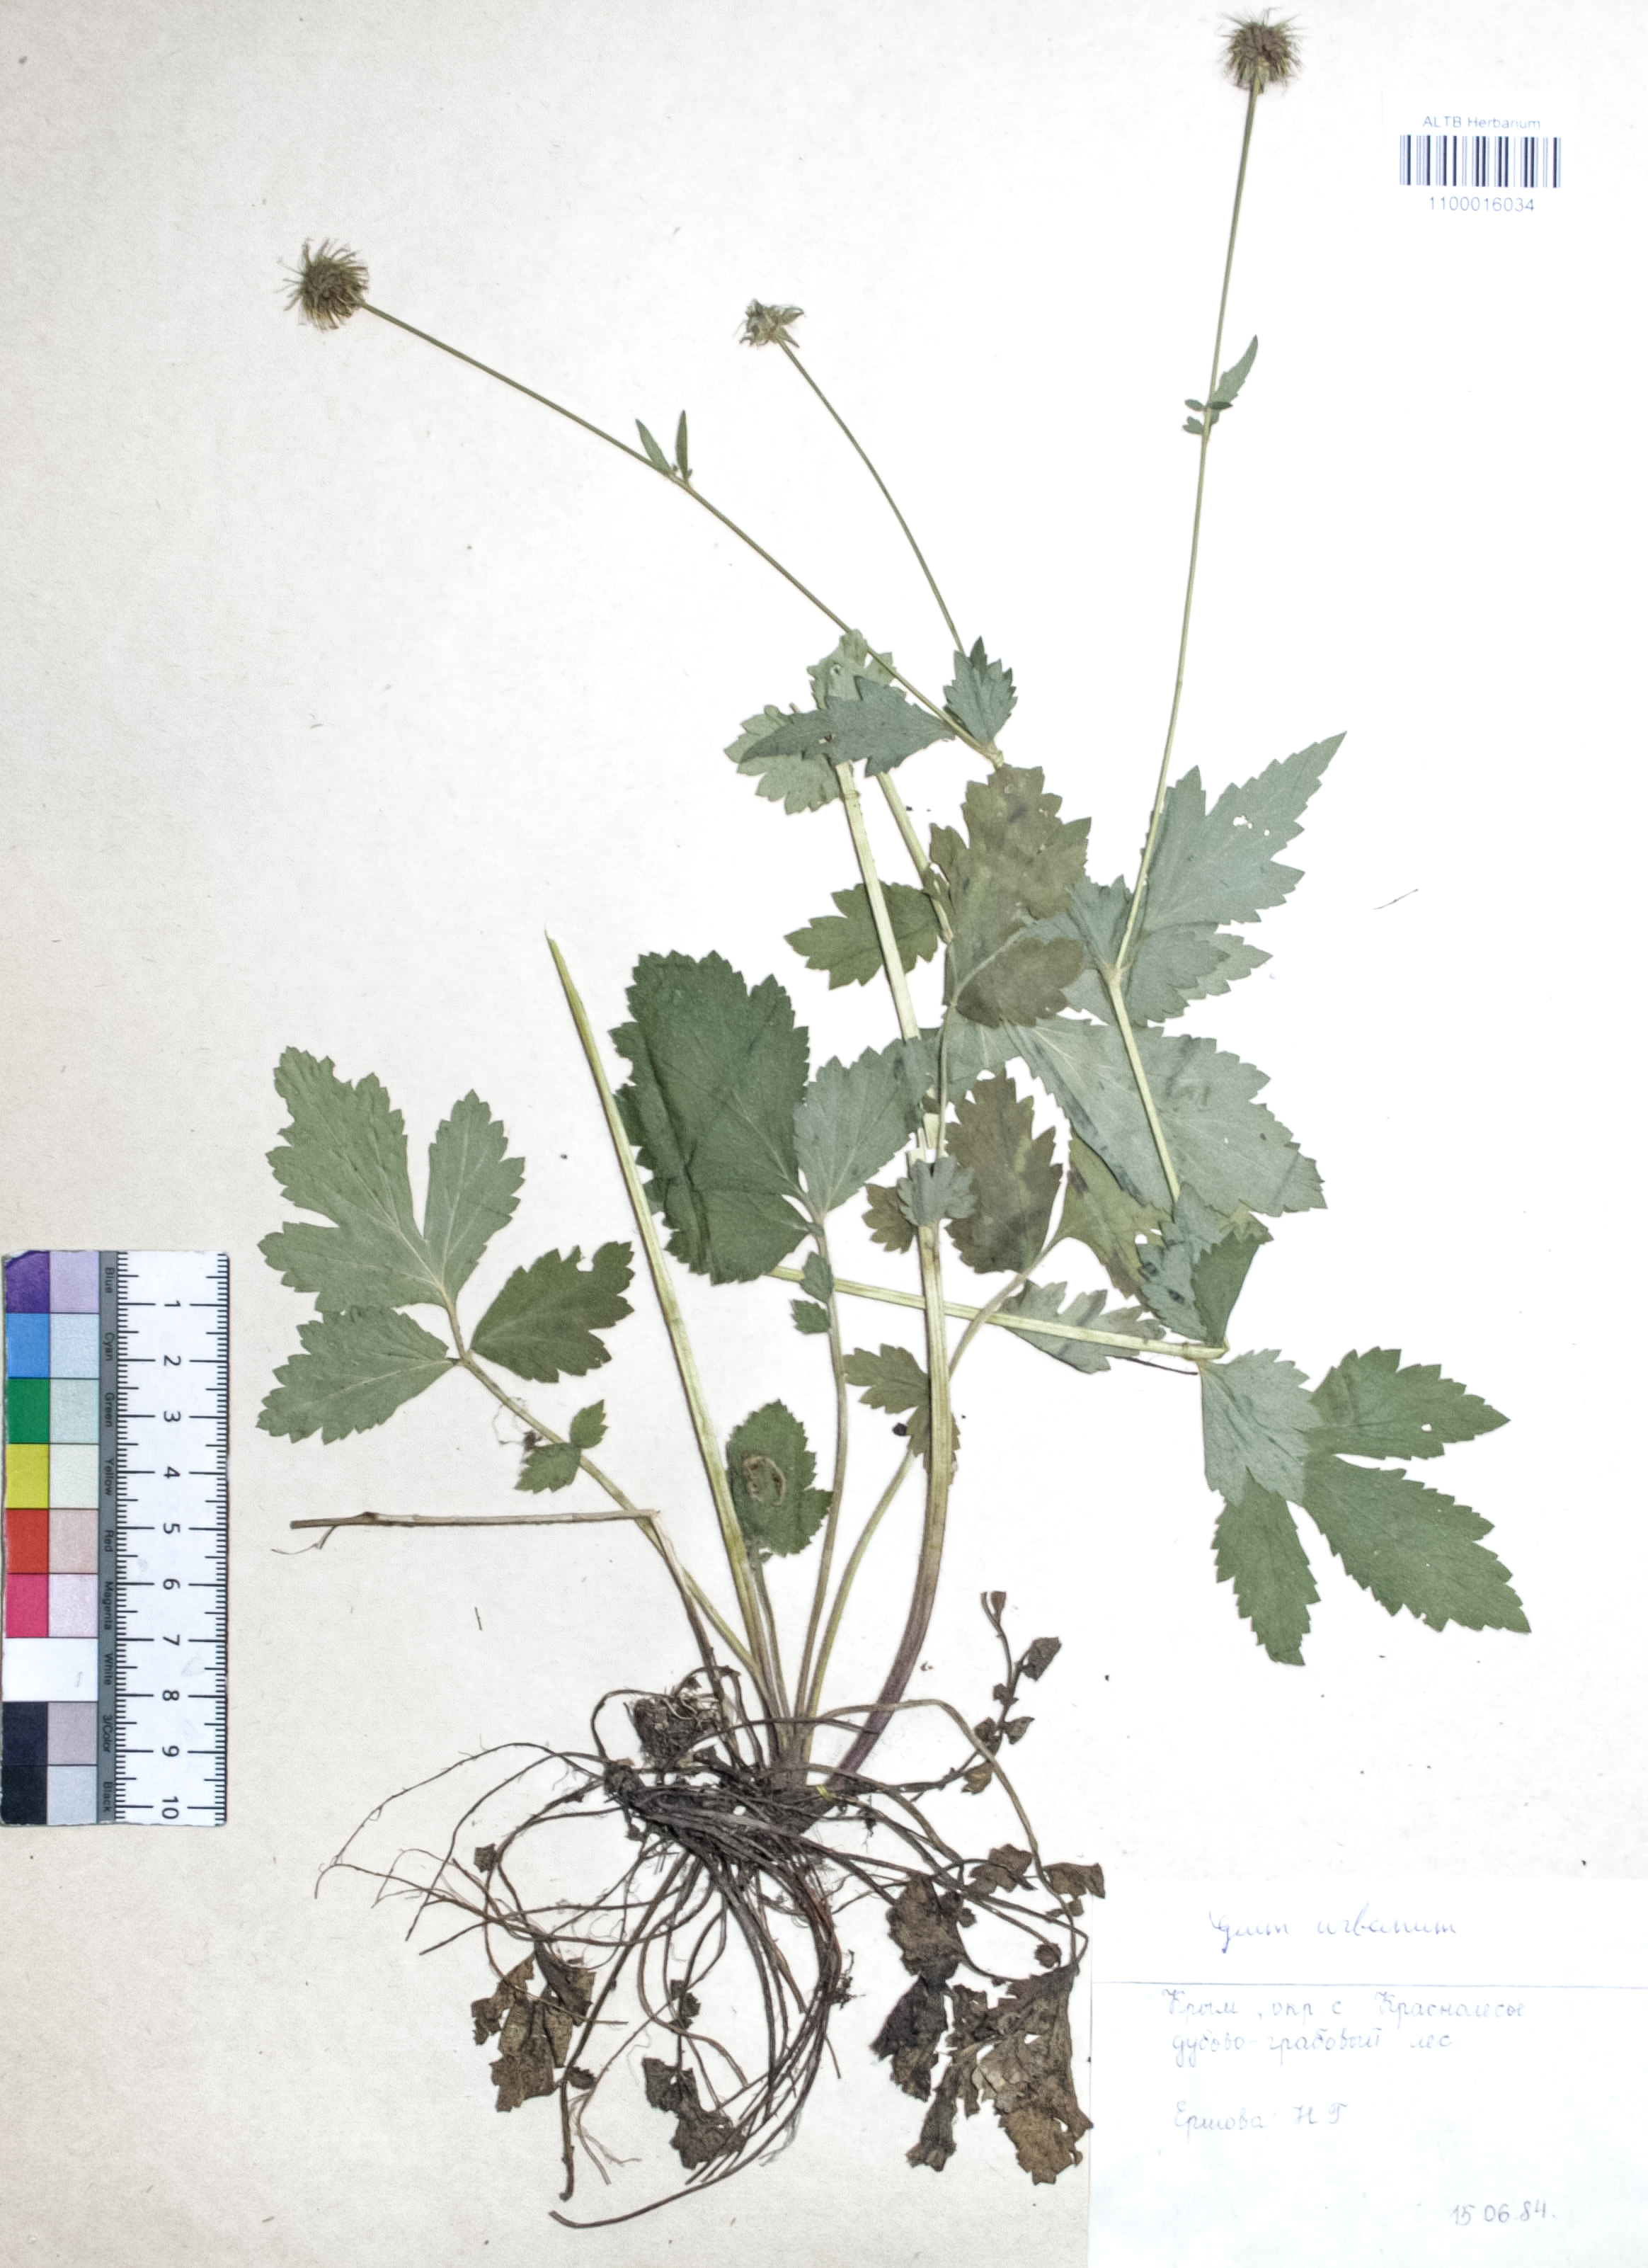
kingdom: Plantae
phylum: Tracheophyta
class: Magnoliopsida
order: Rosales
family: Rosaceae
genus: Geum
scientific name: Geum urbanum
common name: Wood avens
